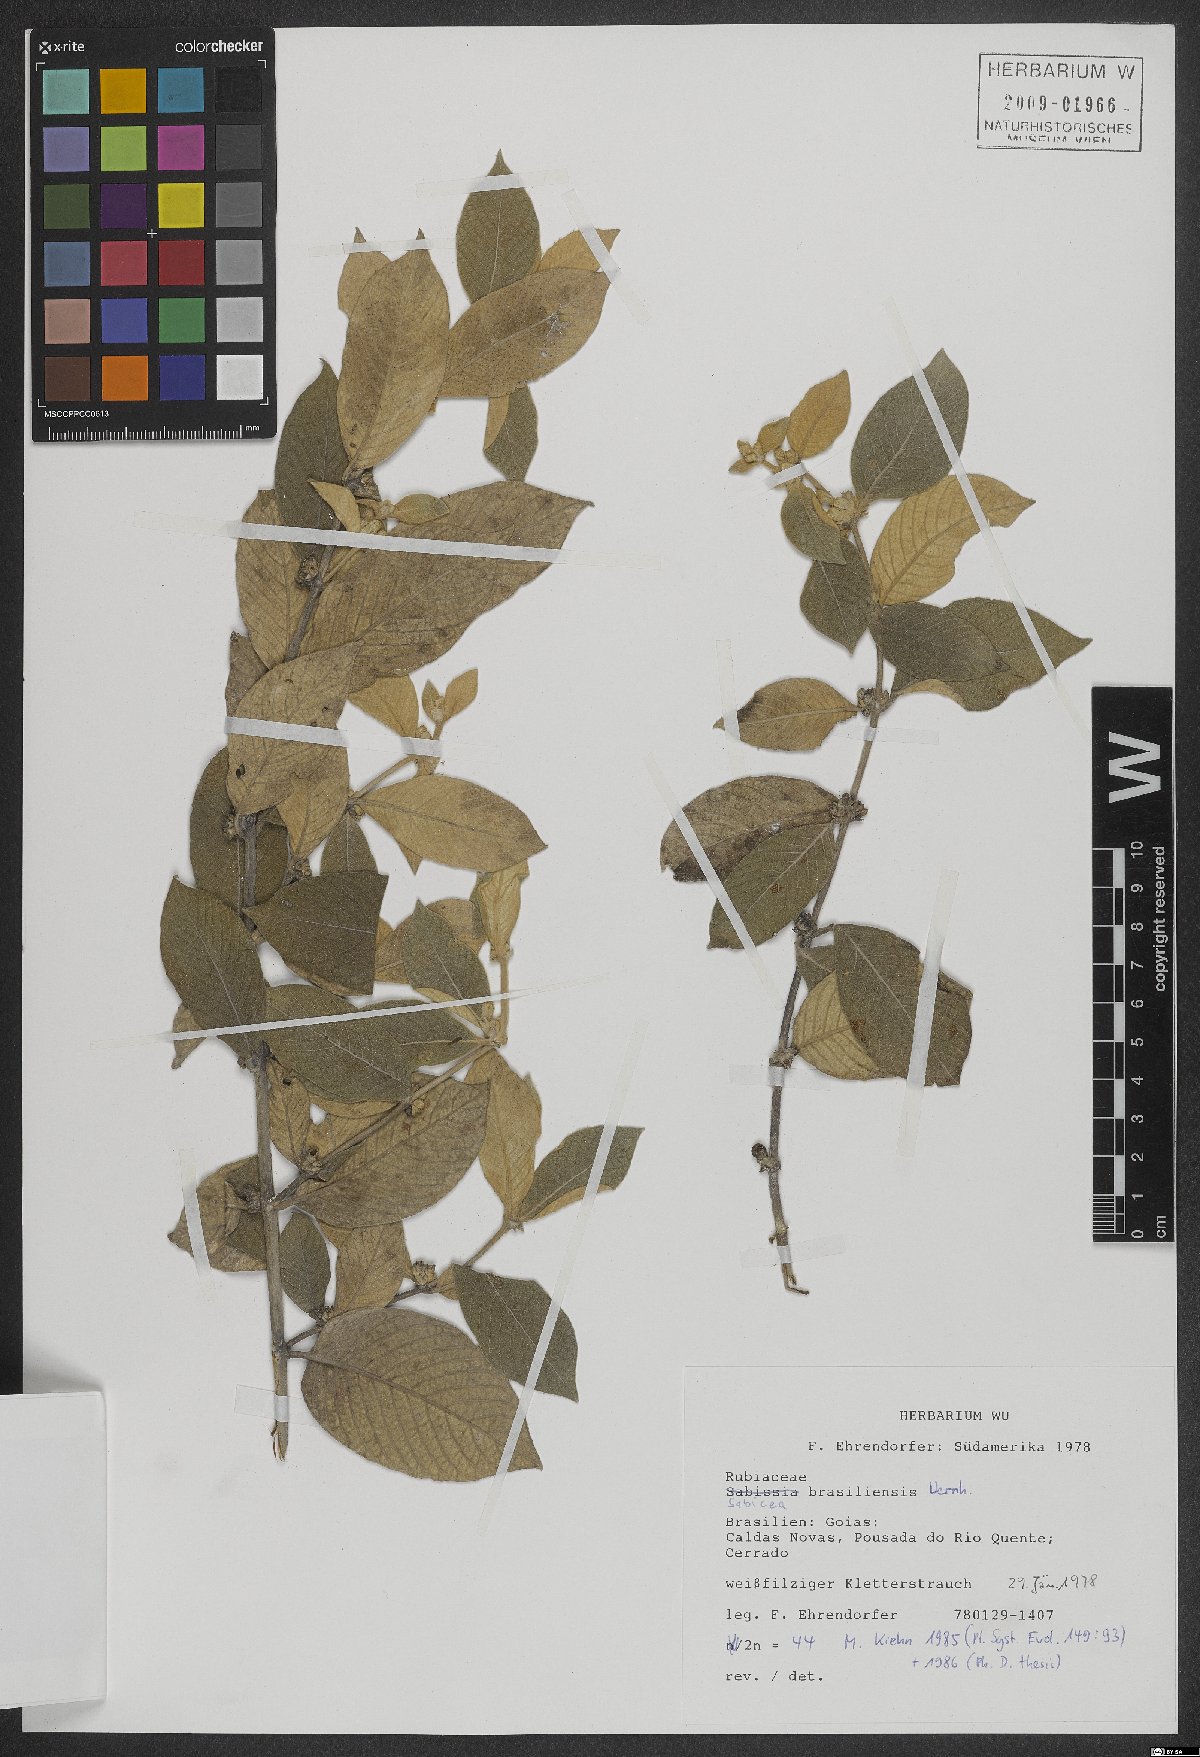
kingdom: Plantae
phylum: Tracheophyta
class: Magnoliopsida
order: Gentianales
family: Rubiaceae
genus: Sabicea
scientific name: Sabicea brasiliensis
